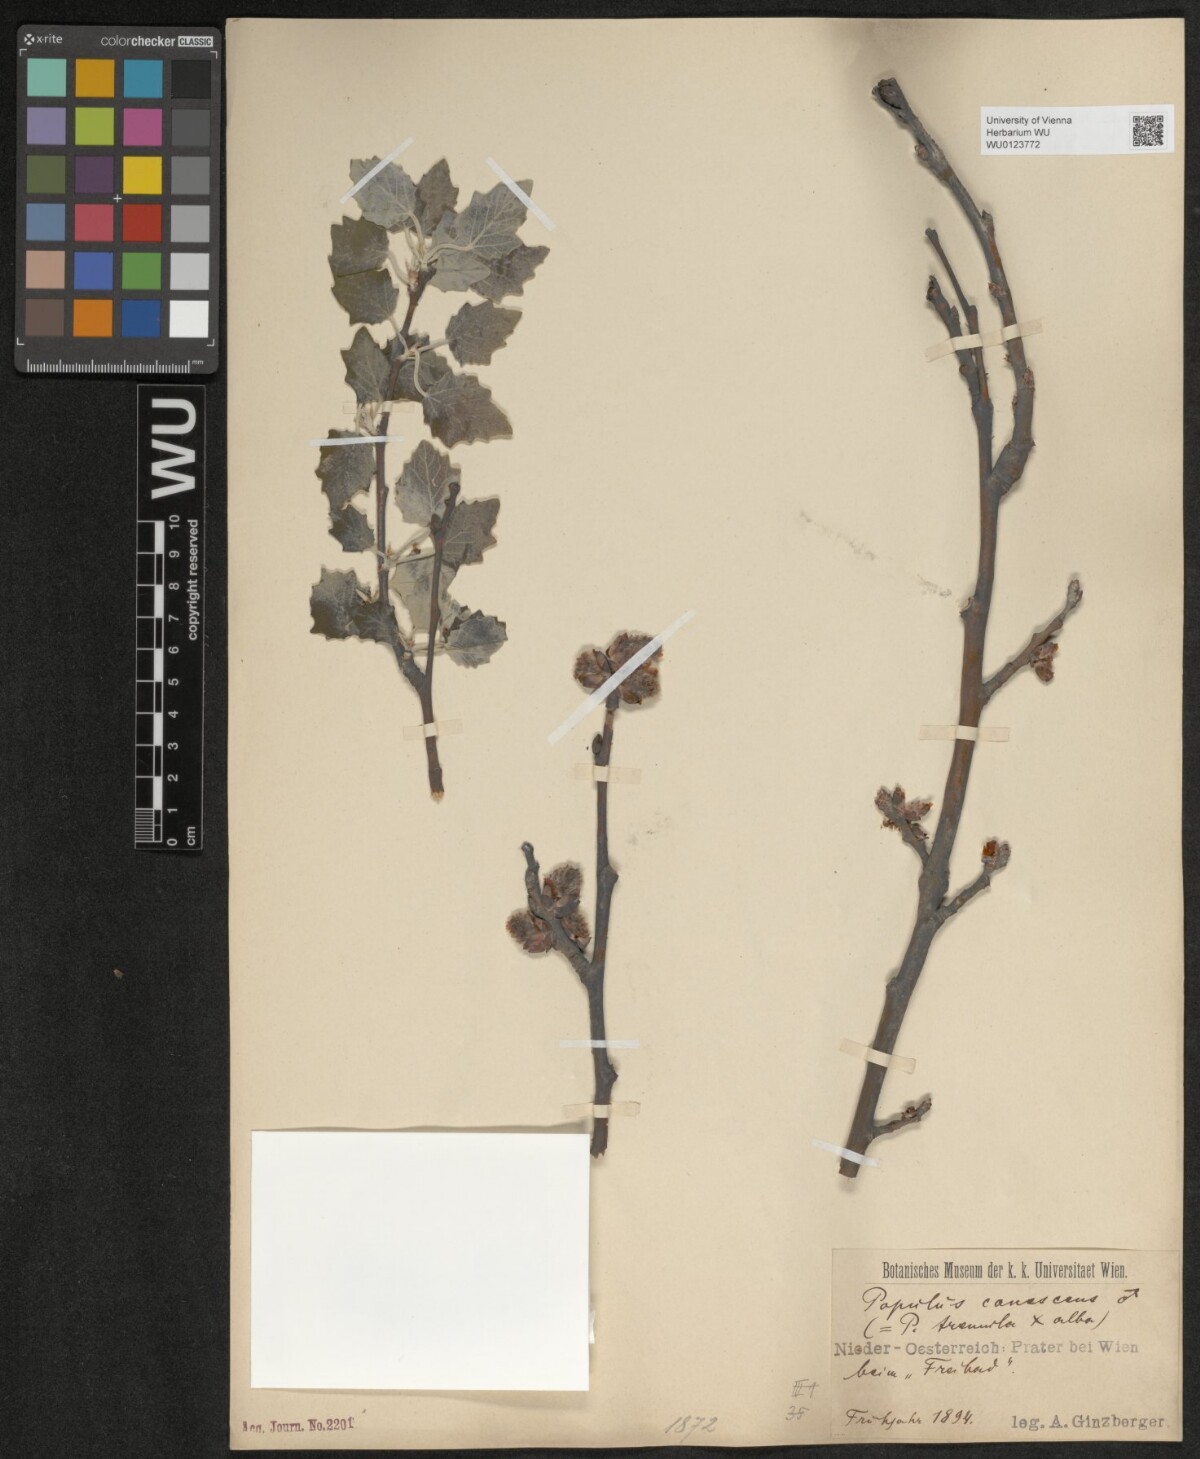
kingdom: Plantae
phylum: Tracheophyta
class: Magnoliopsida
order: Malpighiales
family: Salicaceae
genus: Populus
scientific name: Populus alba
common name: White poplar
